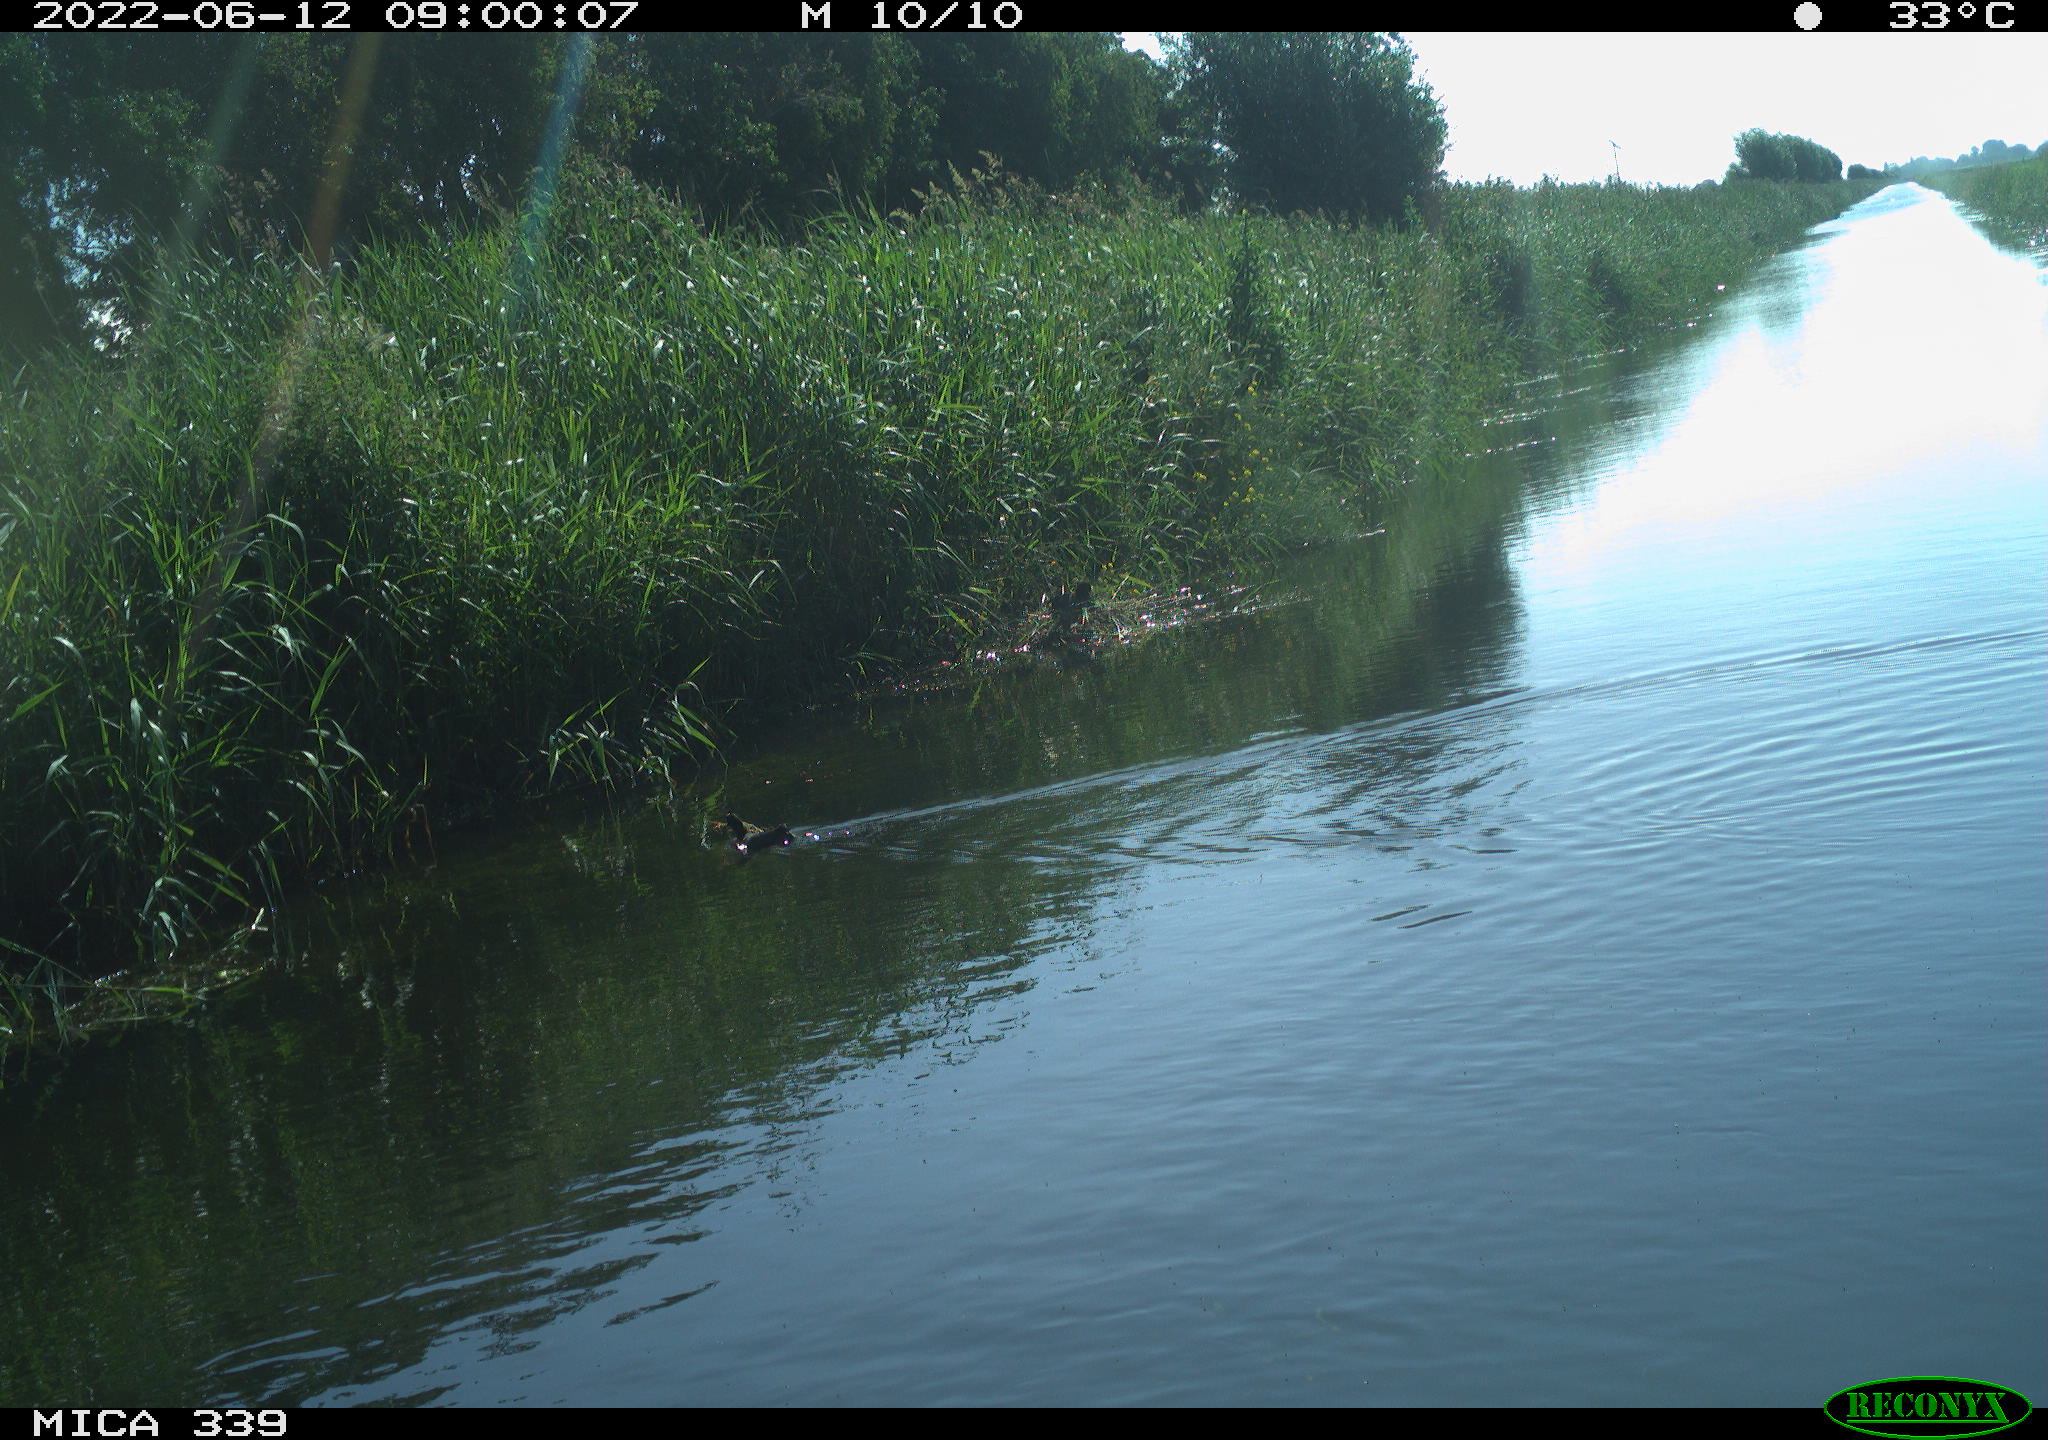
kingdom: Animalia
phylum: Chordata
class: Aves
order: Gruiformes
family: Rallidae
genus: Fulica
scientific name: Fulica atra
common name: Eurasian coot
